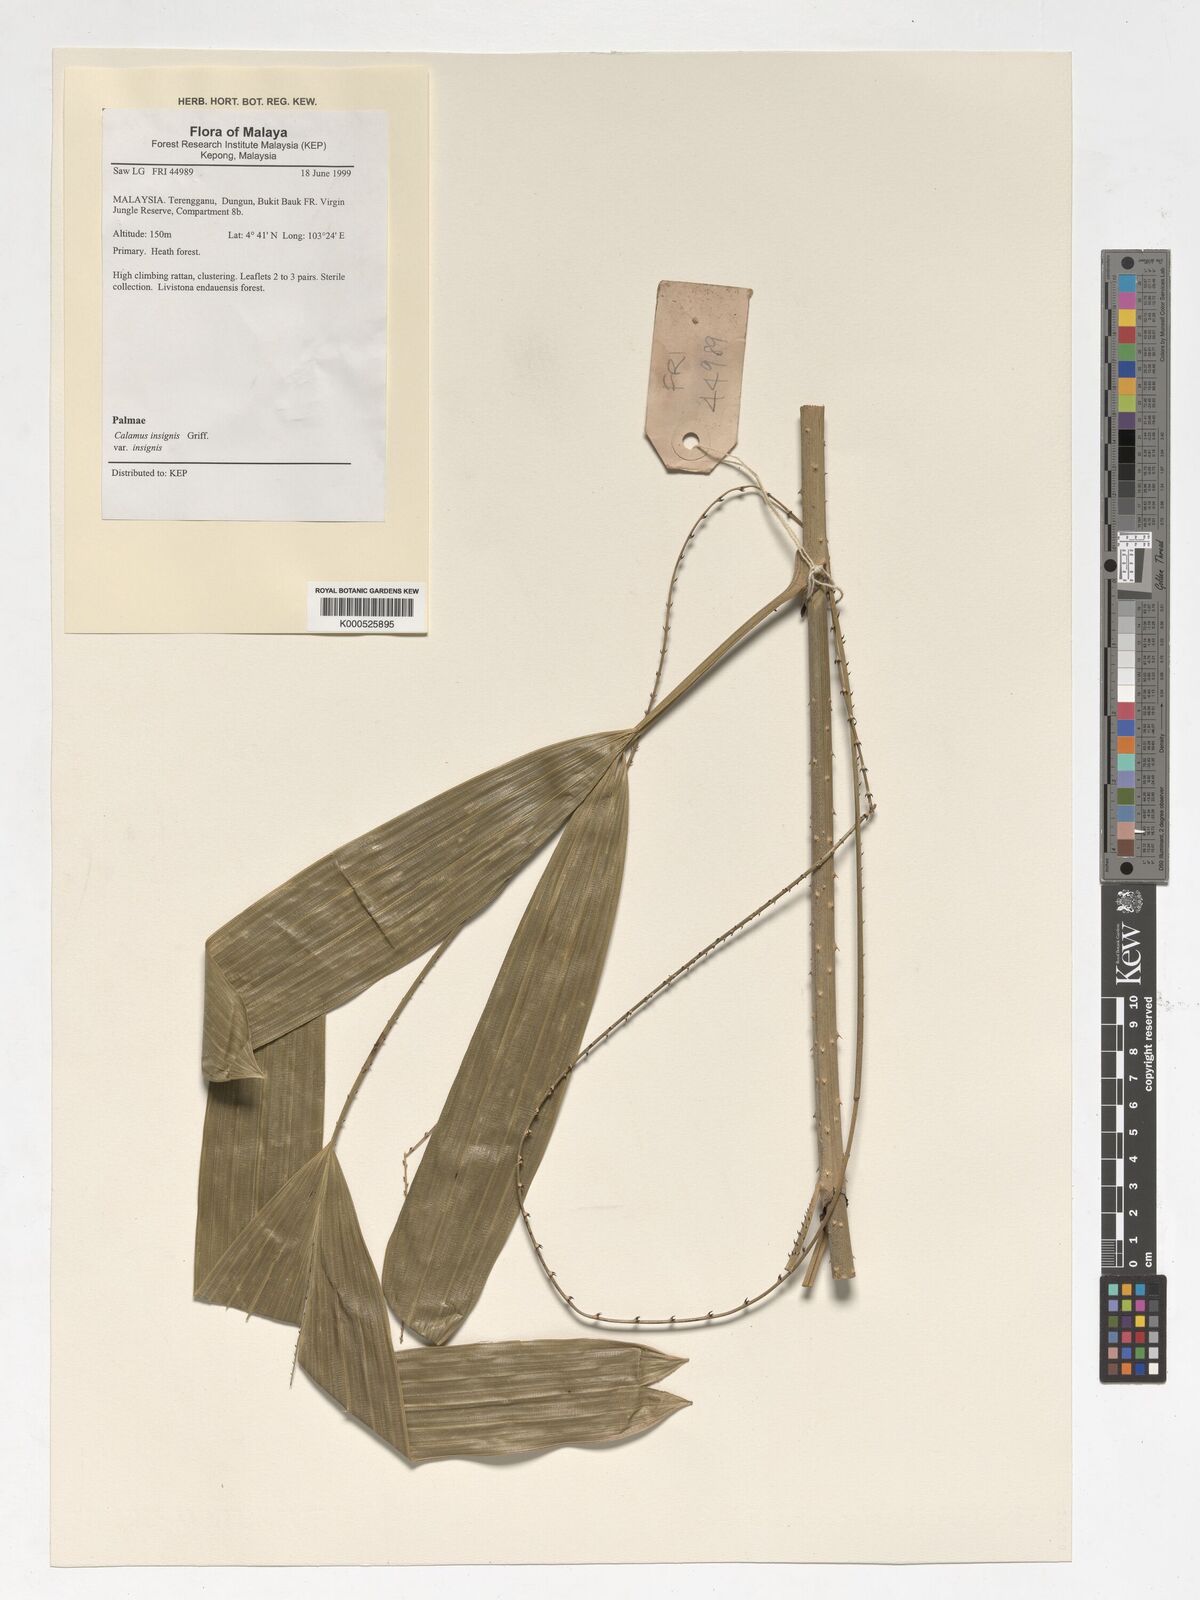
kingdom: Plantae
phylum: Tracheophyta
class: Liliopsida
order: Arecales
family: Arecaceae
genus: Calamus
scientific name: Calamus insignis
